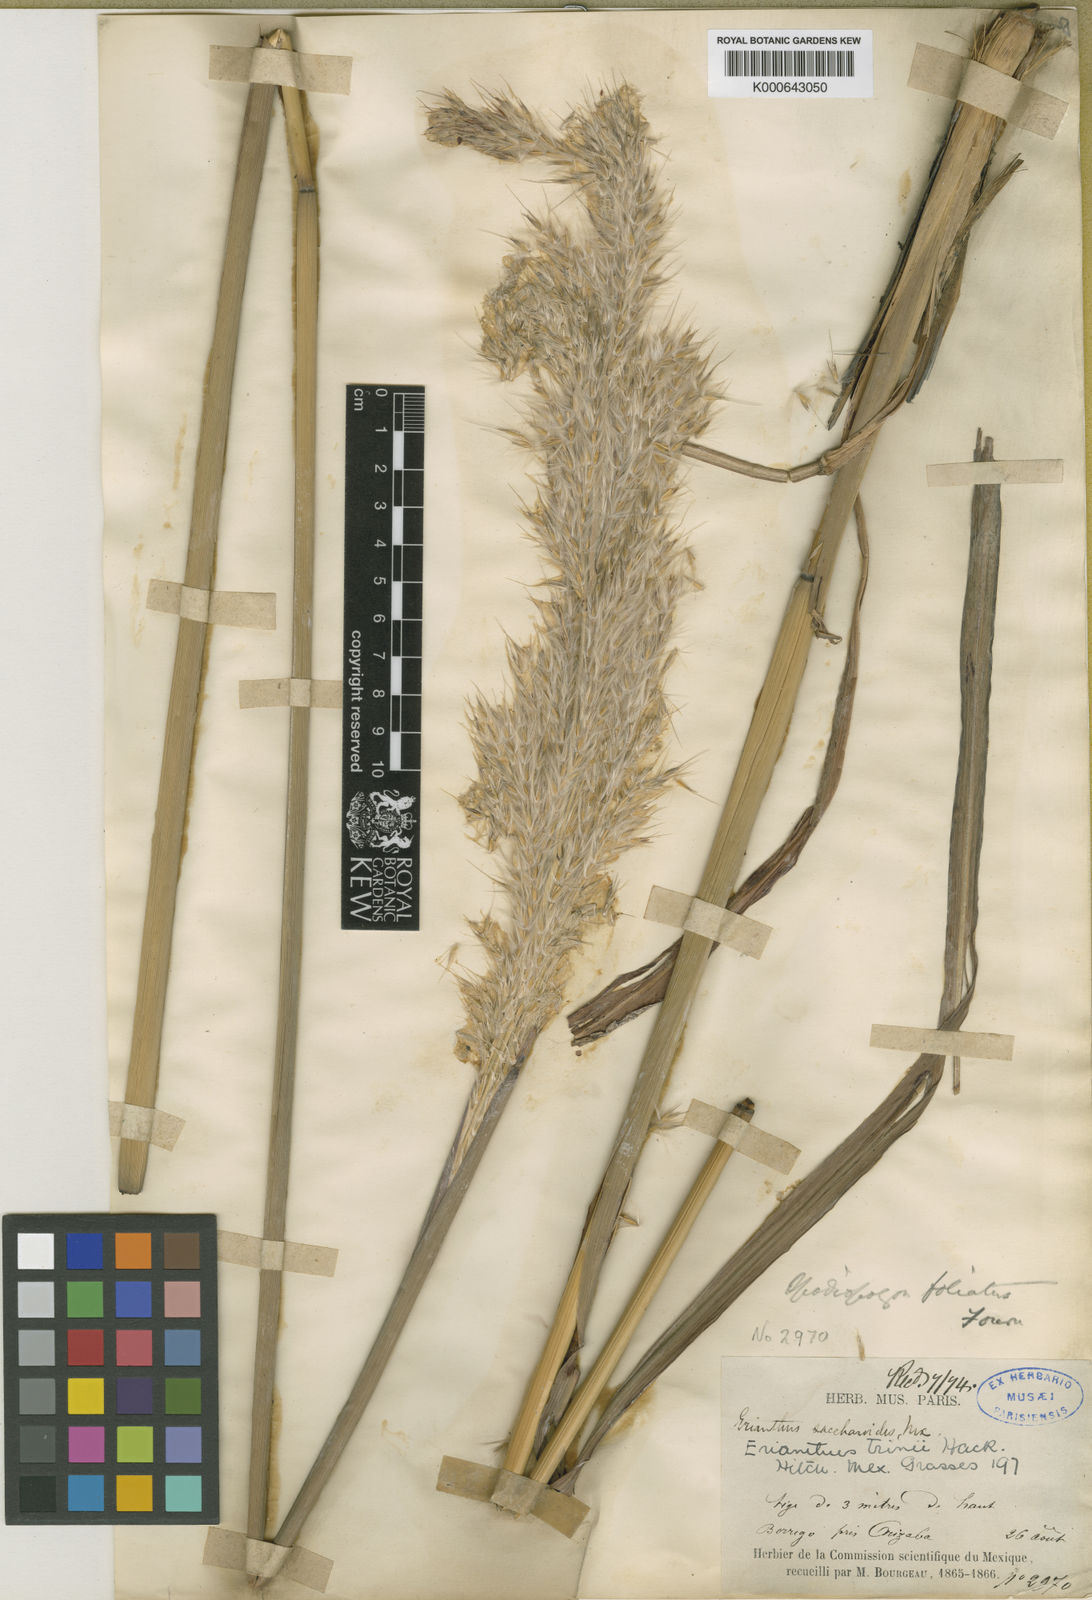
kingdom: Plantae
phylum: Tracheophyta
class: Liliopsida
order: Poales
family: Poaceae
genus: Saccharum
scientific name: Saccharum angustifolium
